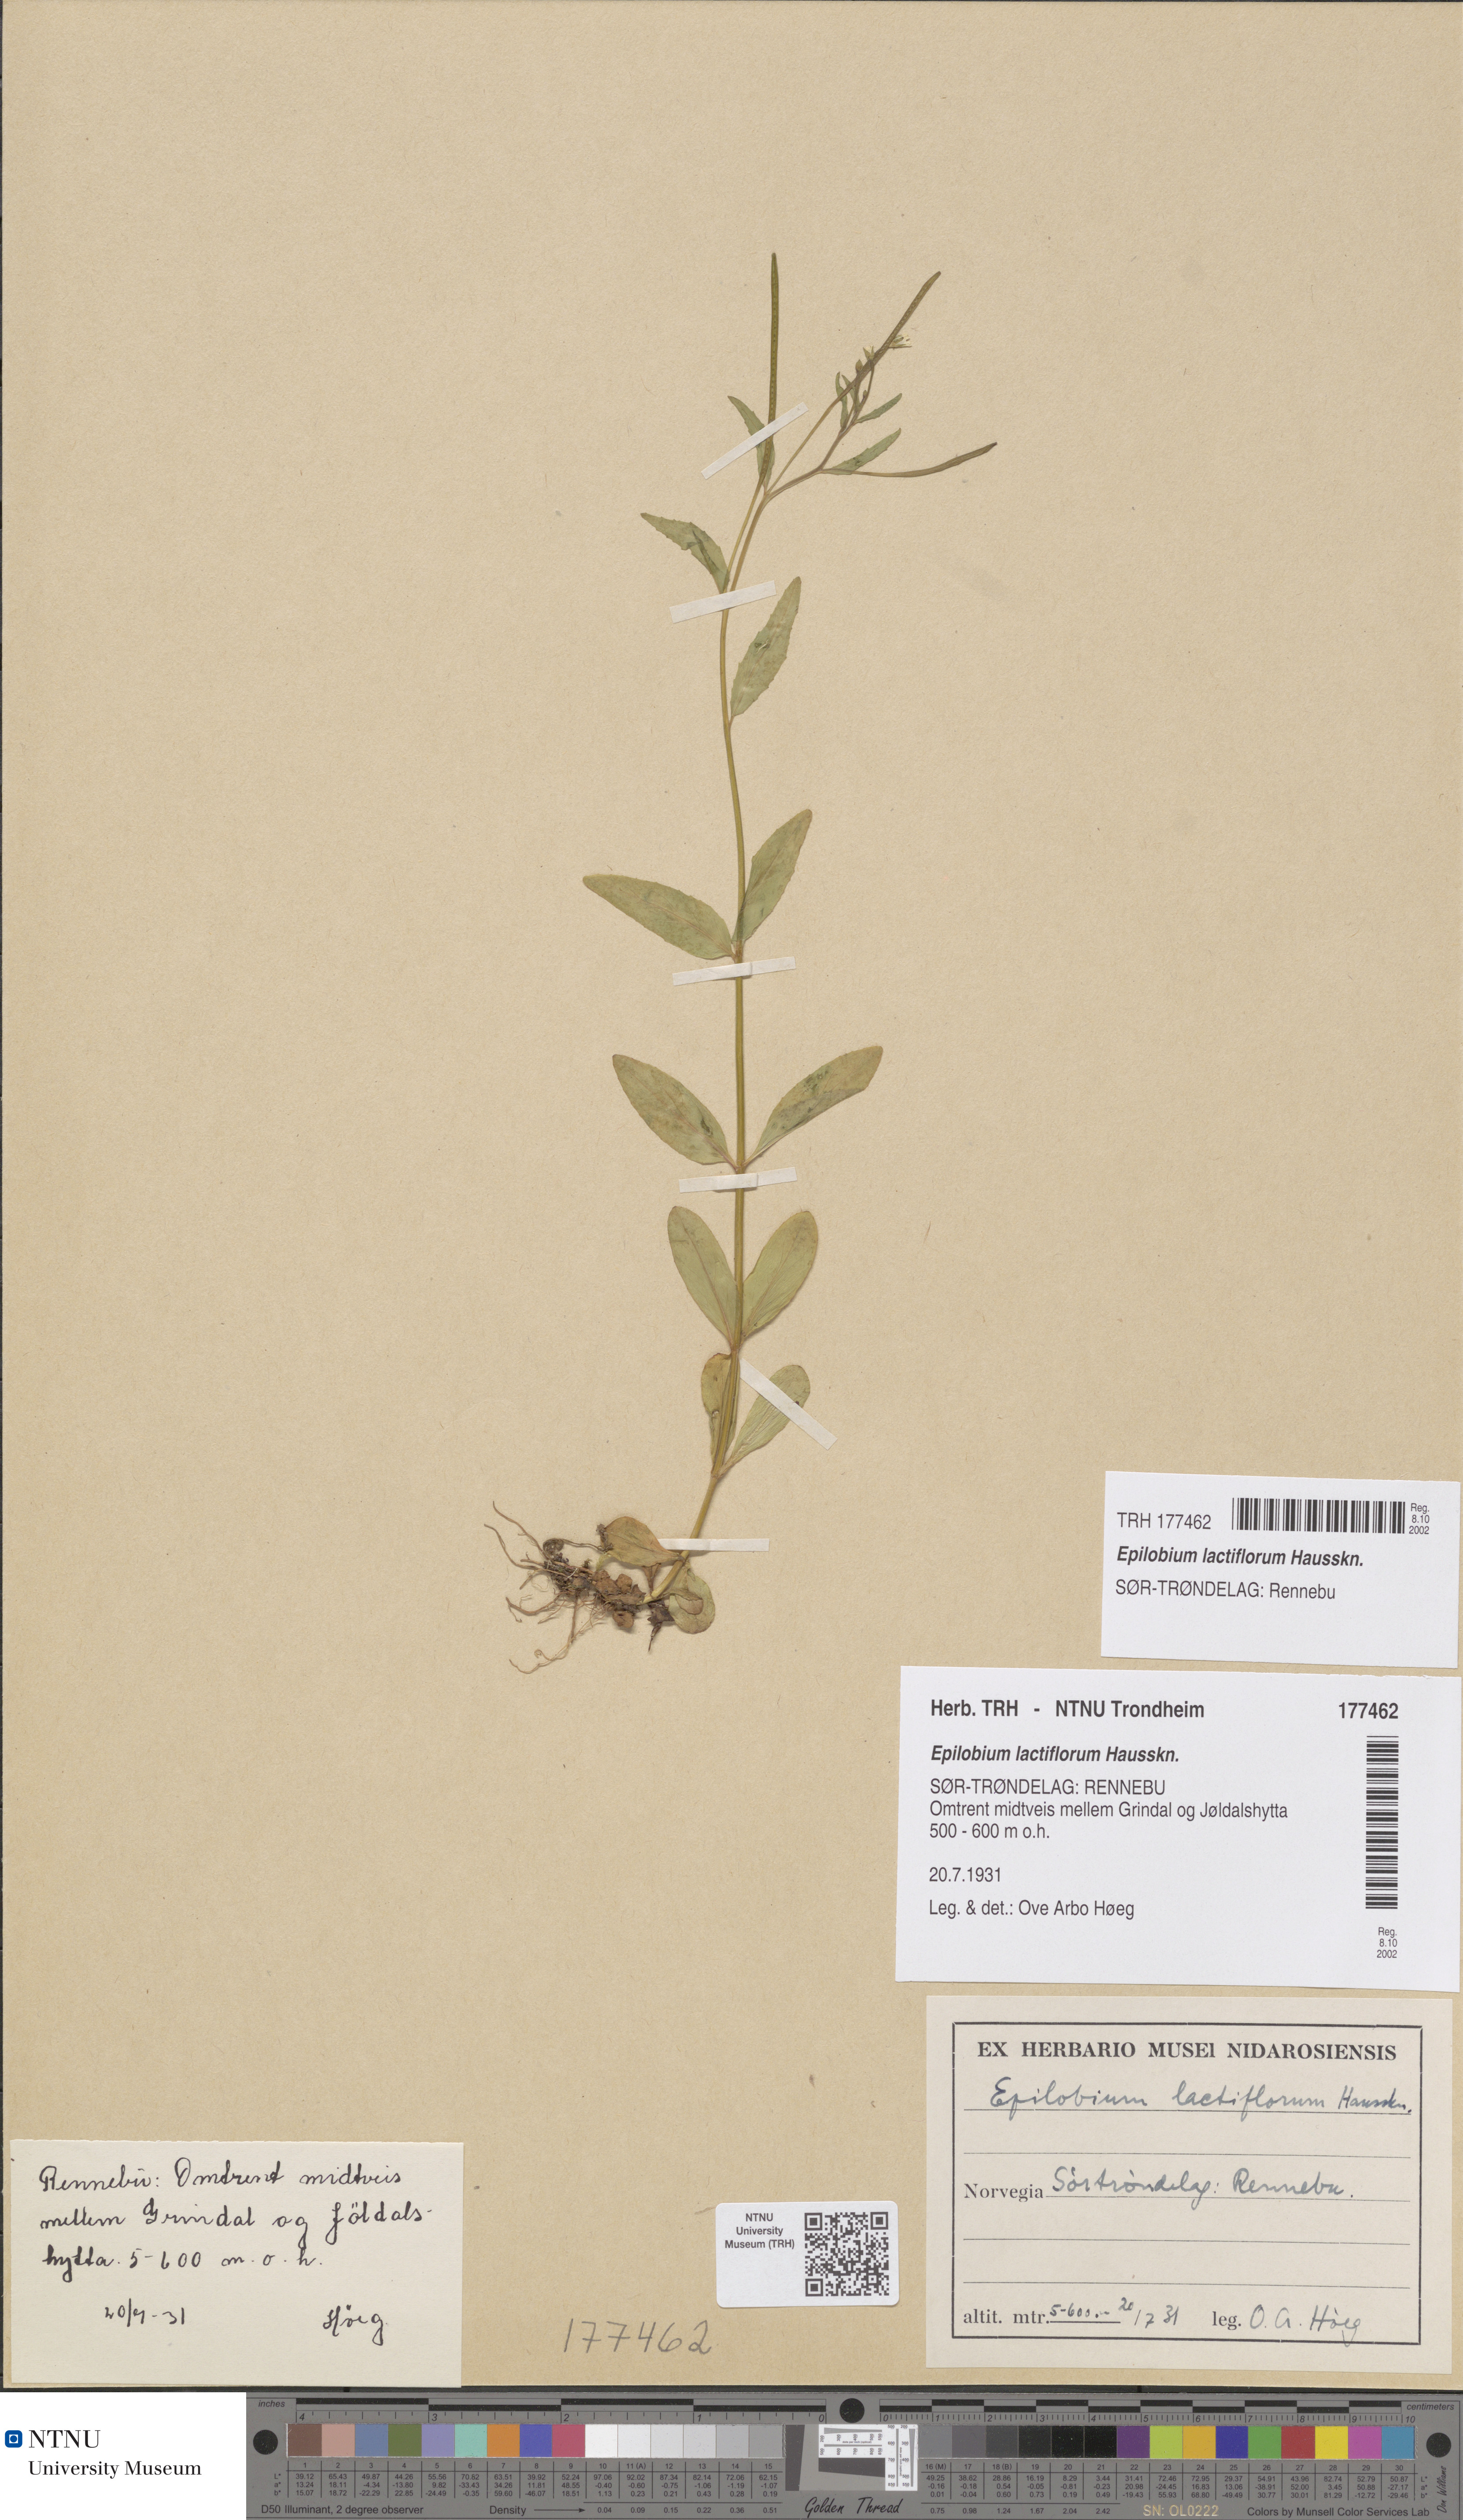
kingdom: Plantae
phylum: Tracheophyta
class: Magnoliopsida
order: Myrtales
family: Onagraceae
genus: Epilobium
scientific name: Epilobium lactiflorum
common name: Milkflower willowherb
